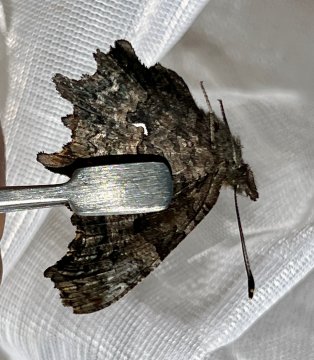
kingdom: Animalia
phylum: Arthropoda
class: Insecta
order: Lepidoptera
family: Nymphalidae
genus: Polygonia
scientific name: Polygonia faunus
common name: Green Comma
